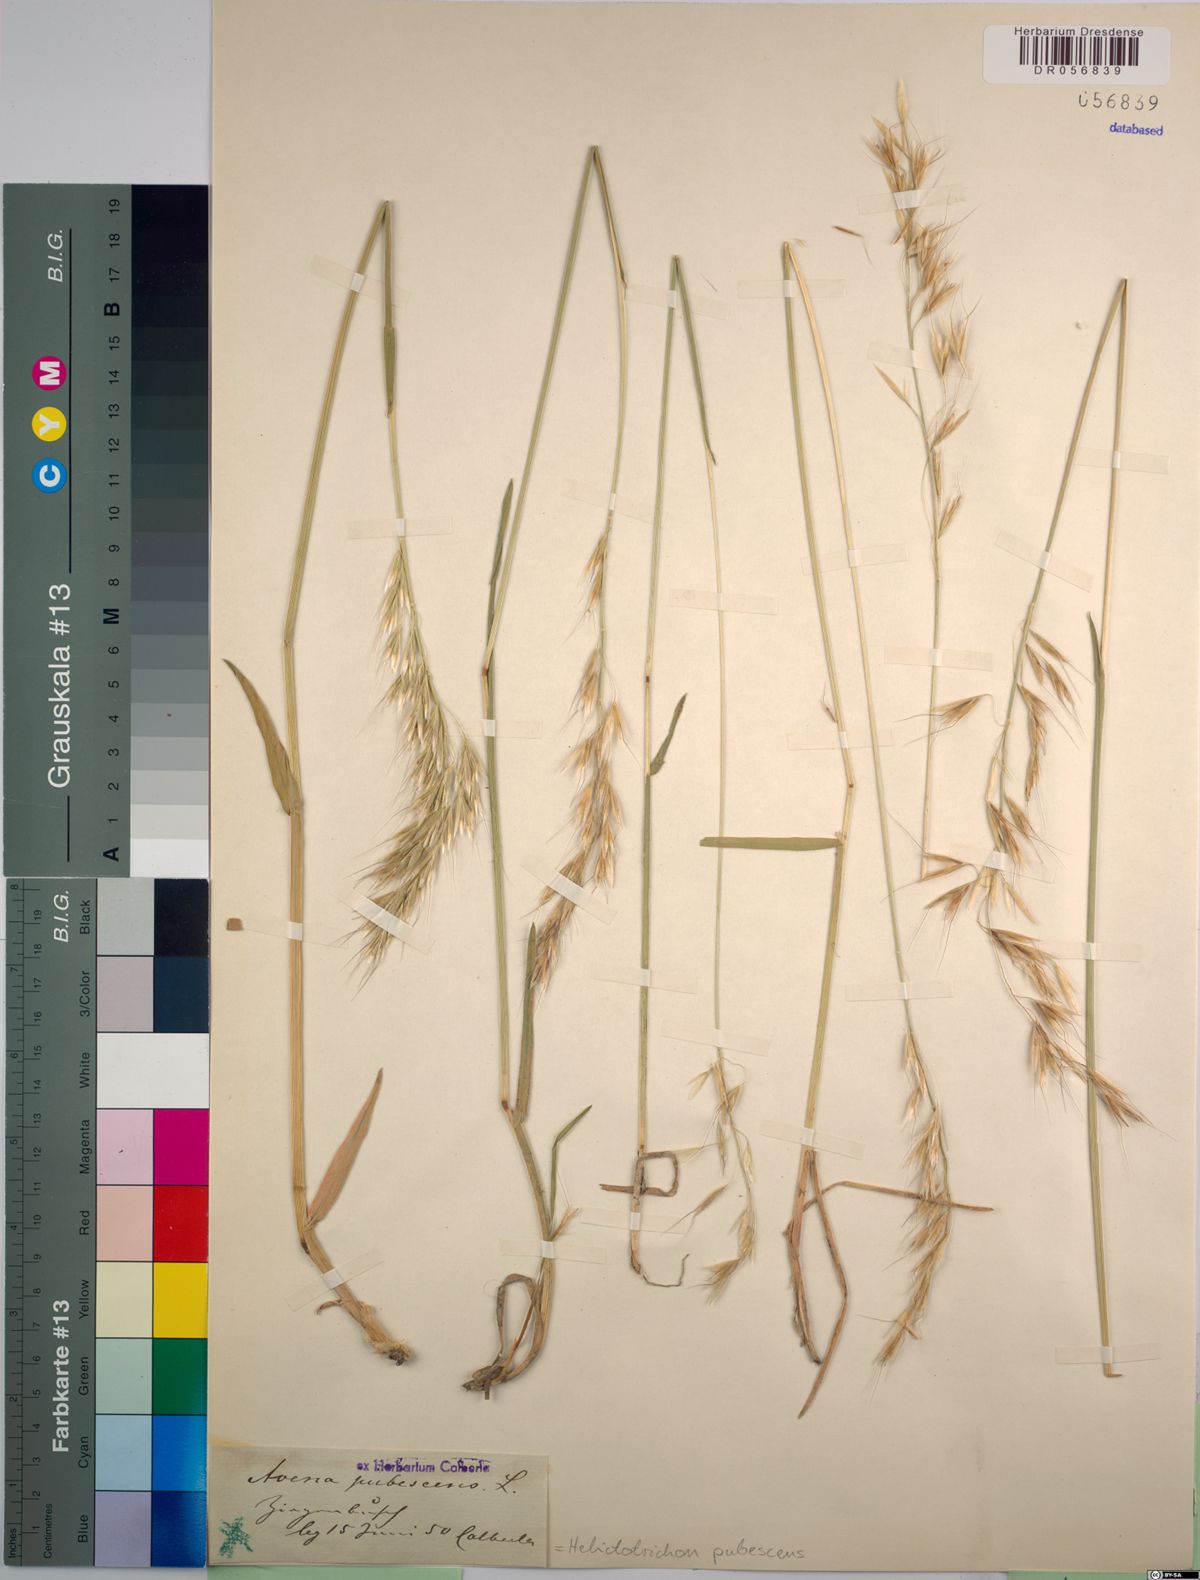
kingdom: Plantae
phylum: Tracheophyta
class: Liliopsida
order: Poales
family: Poaceae
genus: Avenula
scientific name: Avenula pubescens
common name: Downy alpine oatgrass
